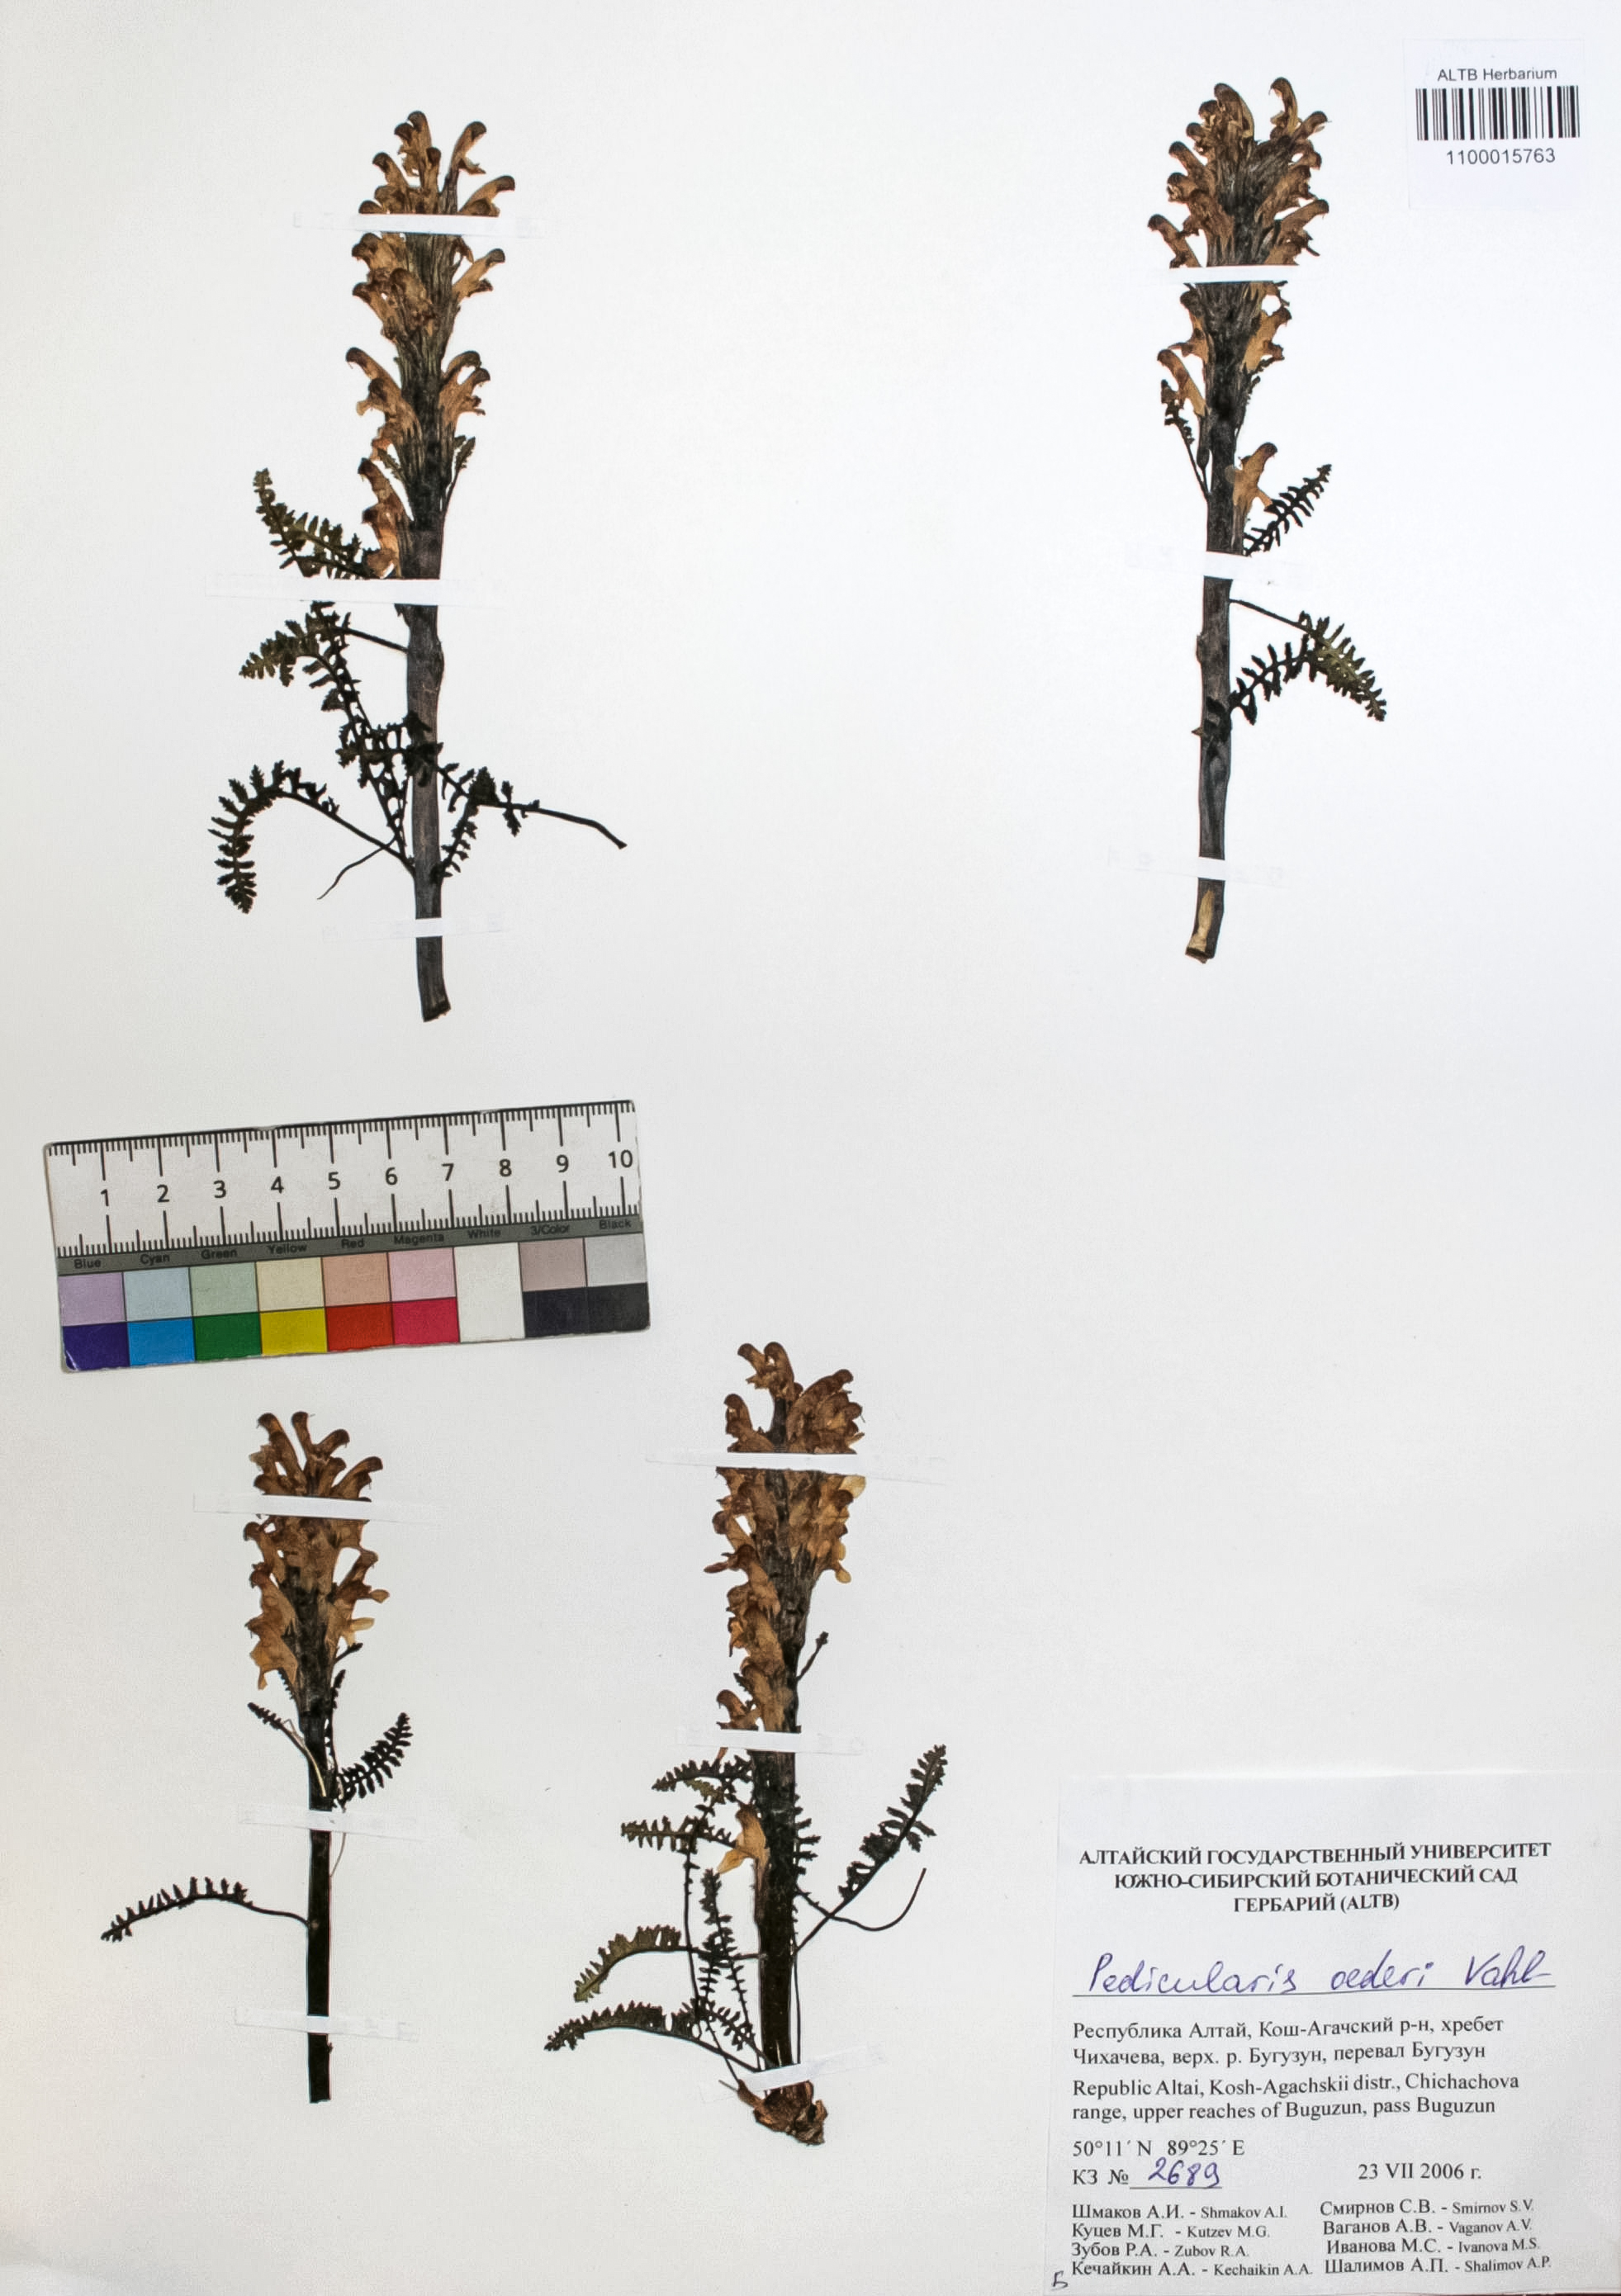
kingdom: Plantae
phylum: Tracheophyta
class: Magnoliopsida
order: Caryophyllales
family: Caryophyllaceae
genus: Silene
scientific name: Silene graminifolia
